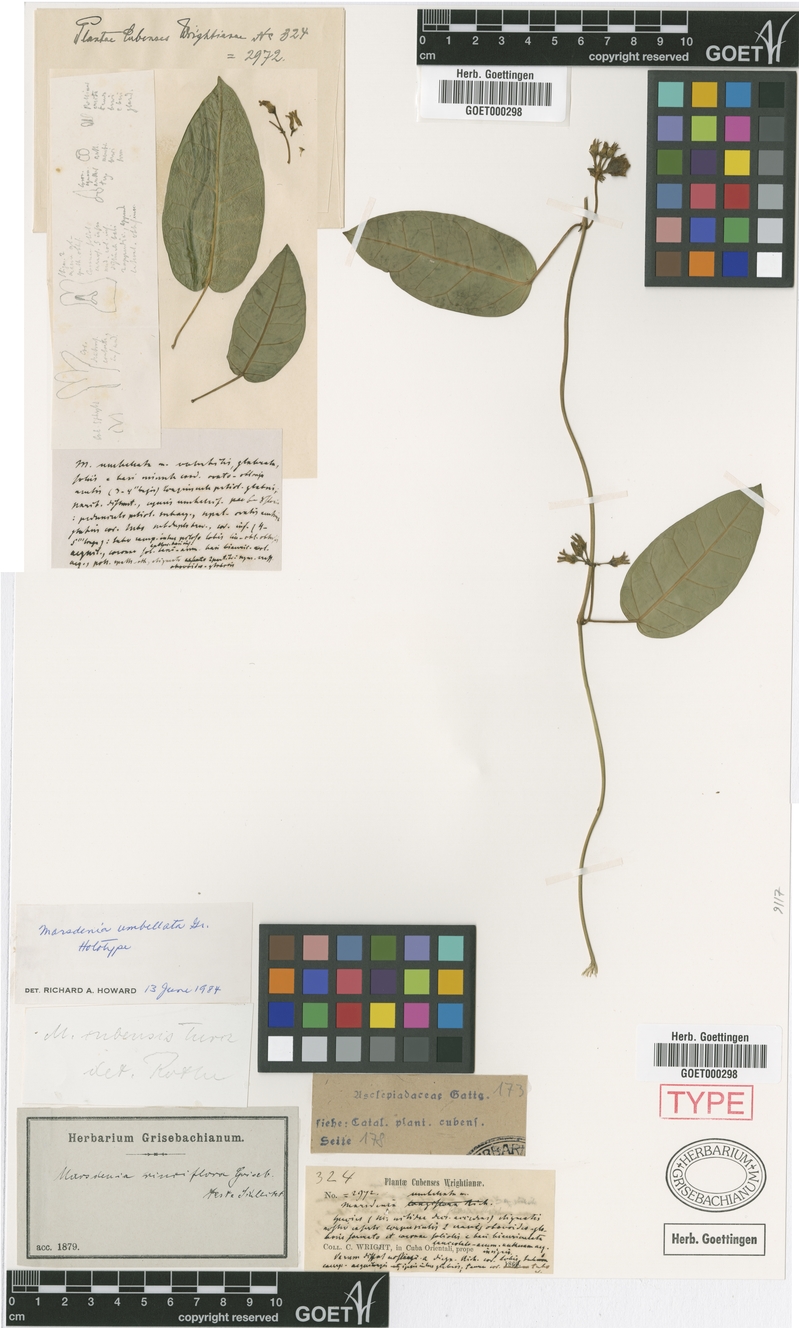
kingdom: Plantae
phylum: Tracheophyta
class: Magnoliopsida
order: Gentianales
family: Apocynaceae
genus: Ruehssia
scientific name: Ruehssia umbellata
